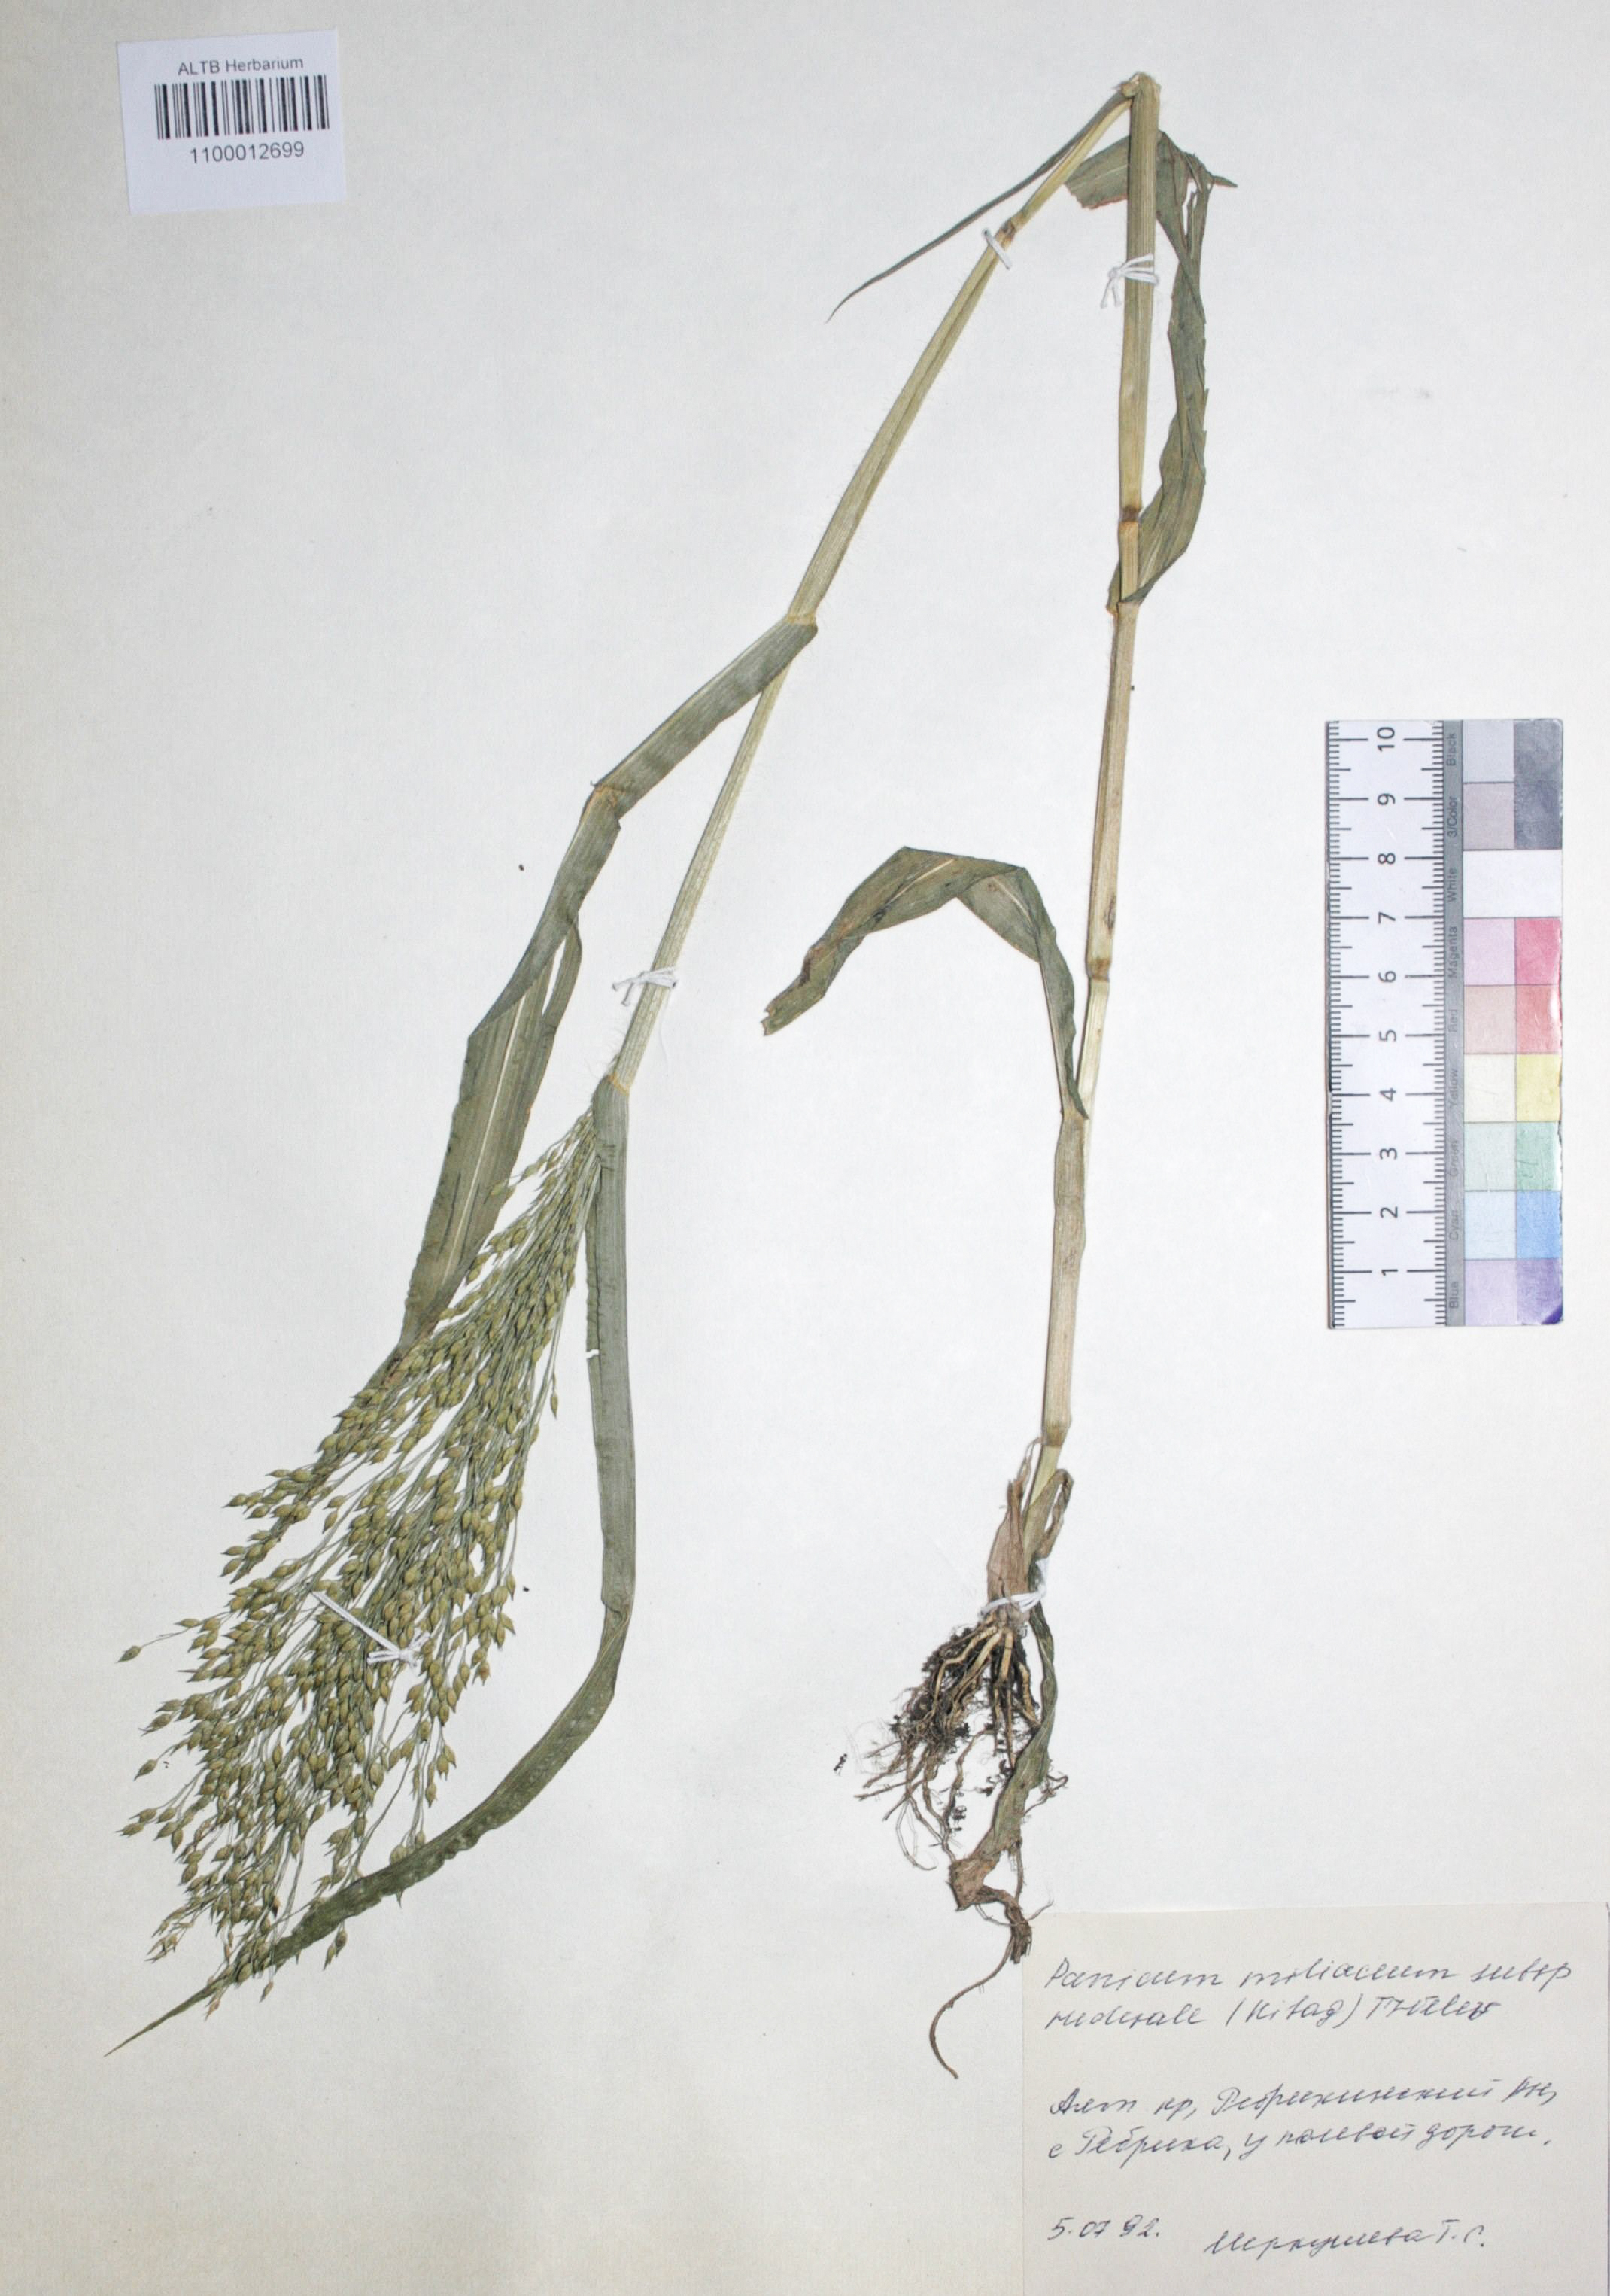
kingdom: Plantae
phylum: Tracheophyta
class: Liliopsida
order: Poales
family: Poaceae
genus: Panicum
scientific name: Panicum miliaceum
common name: Common millet
